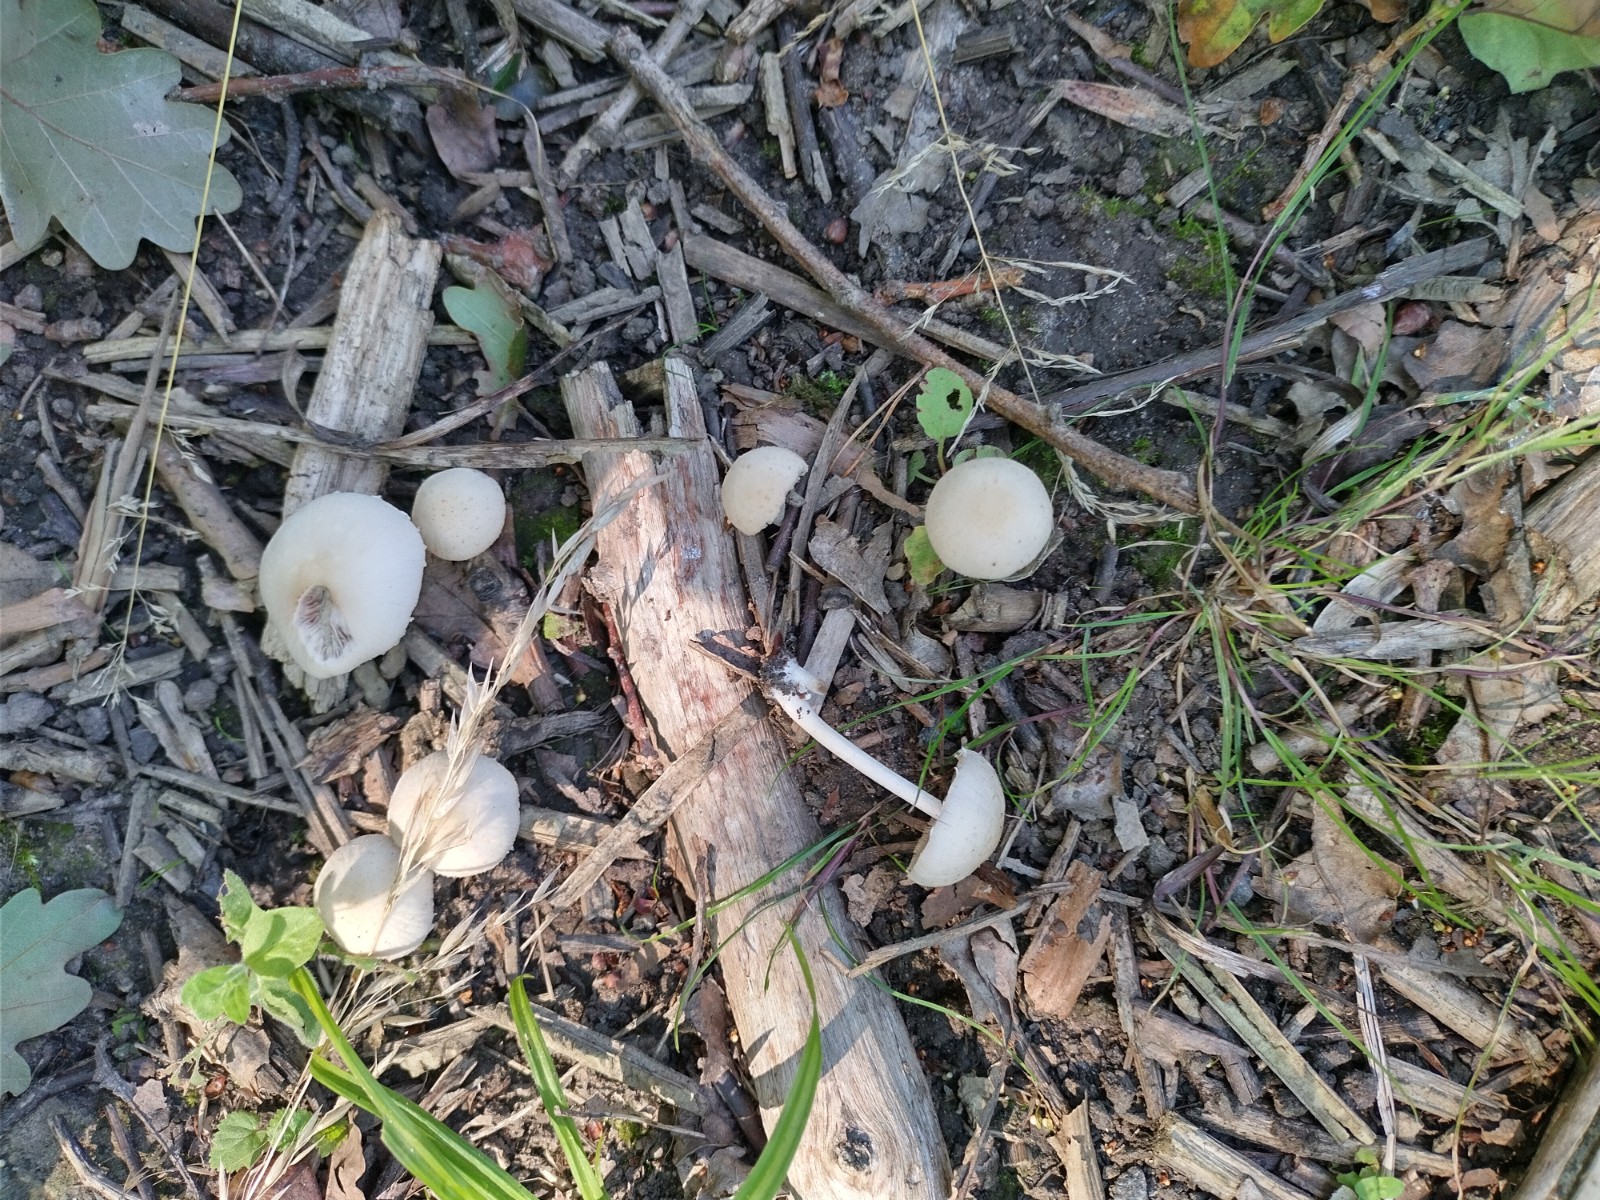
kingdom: Fungi
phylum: Basidiomycota
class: Agaricomycetes
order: Agaricales
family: Psathyrellaceae
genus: Candolleomyces
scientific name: Candolleomyces candolleanus
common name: Candolles mørkhat
